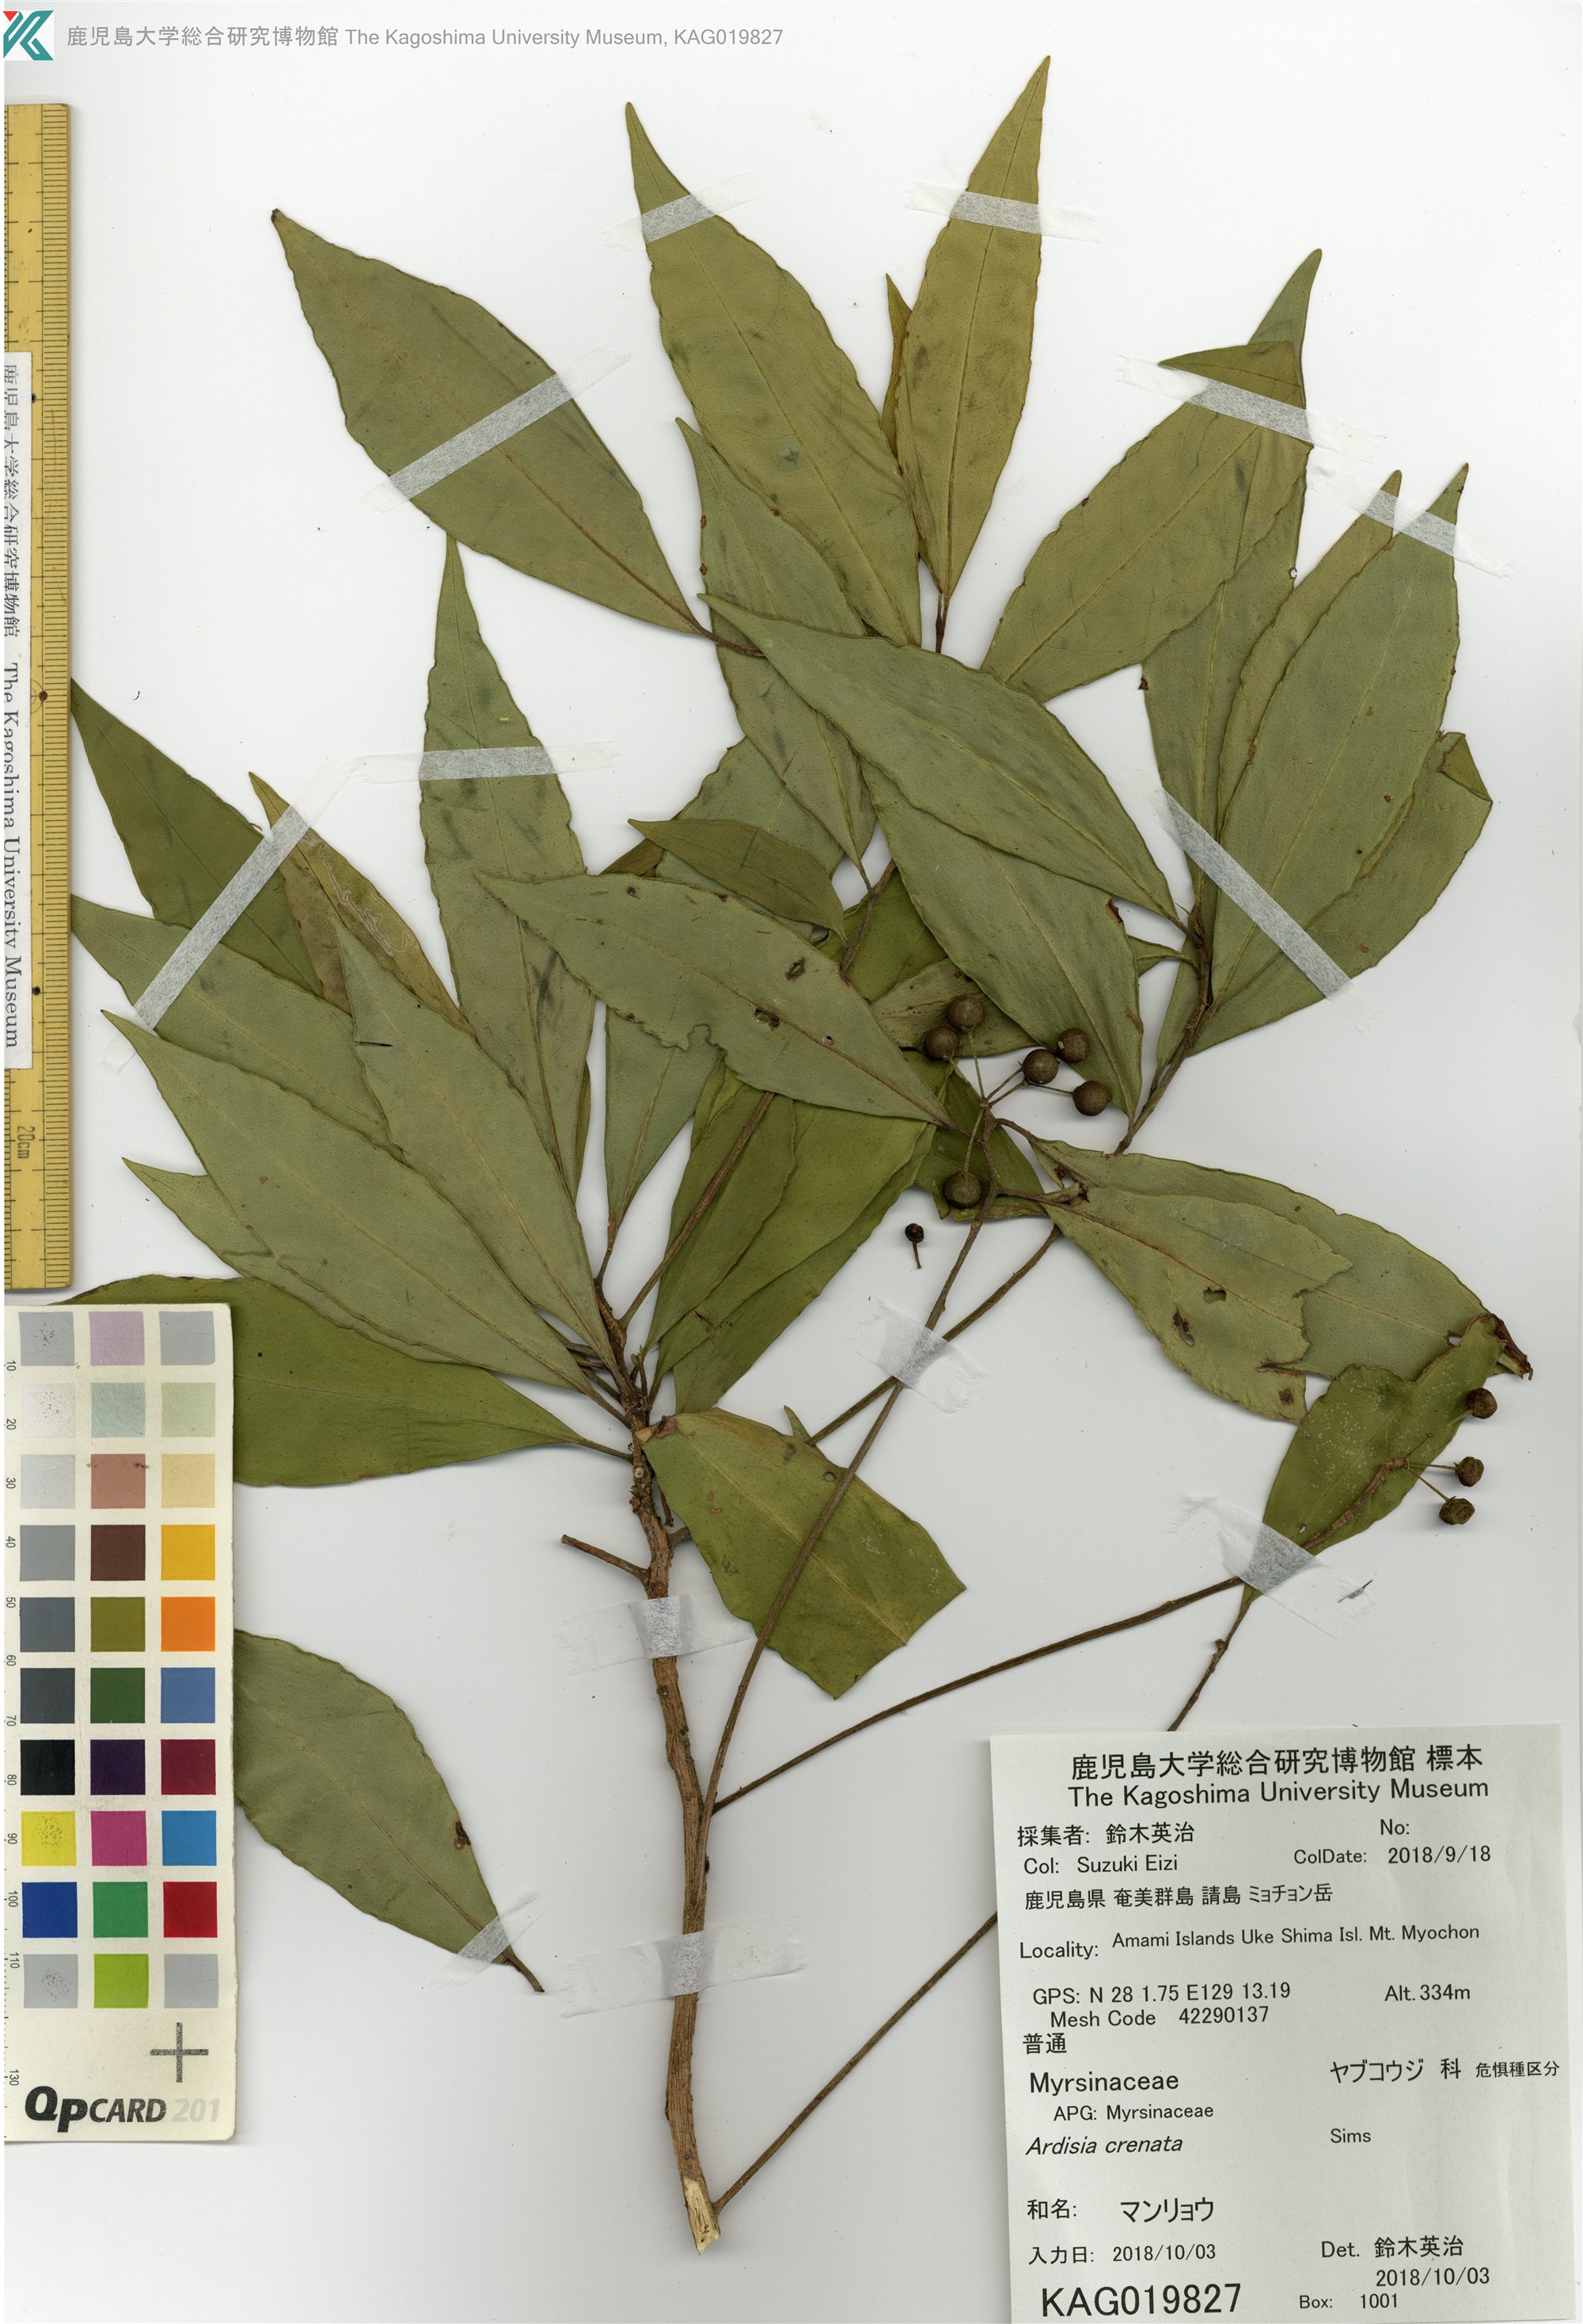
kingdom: Plantae
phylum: Tracheophyta
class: Magnoliopsida
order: Ericales
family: Primulaceae
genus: Ardisia
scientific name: Ardisia crenata
